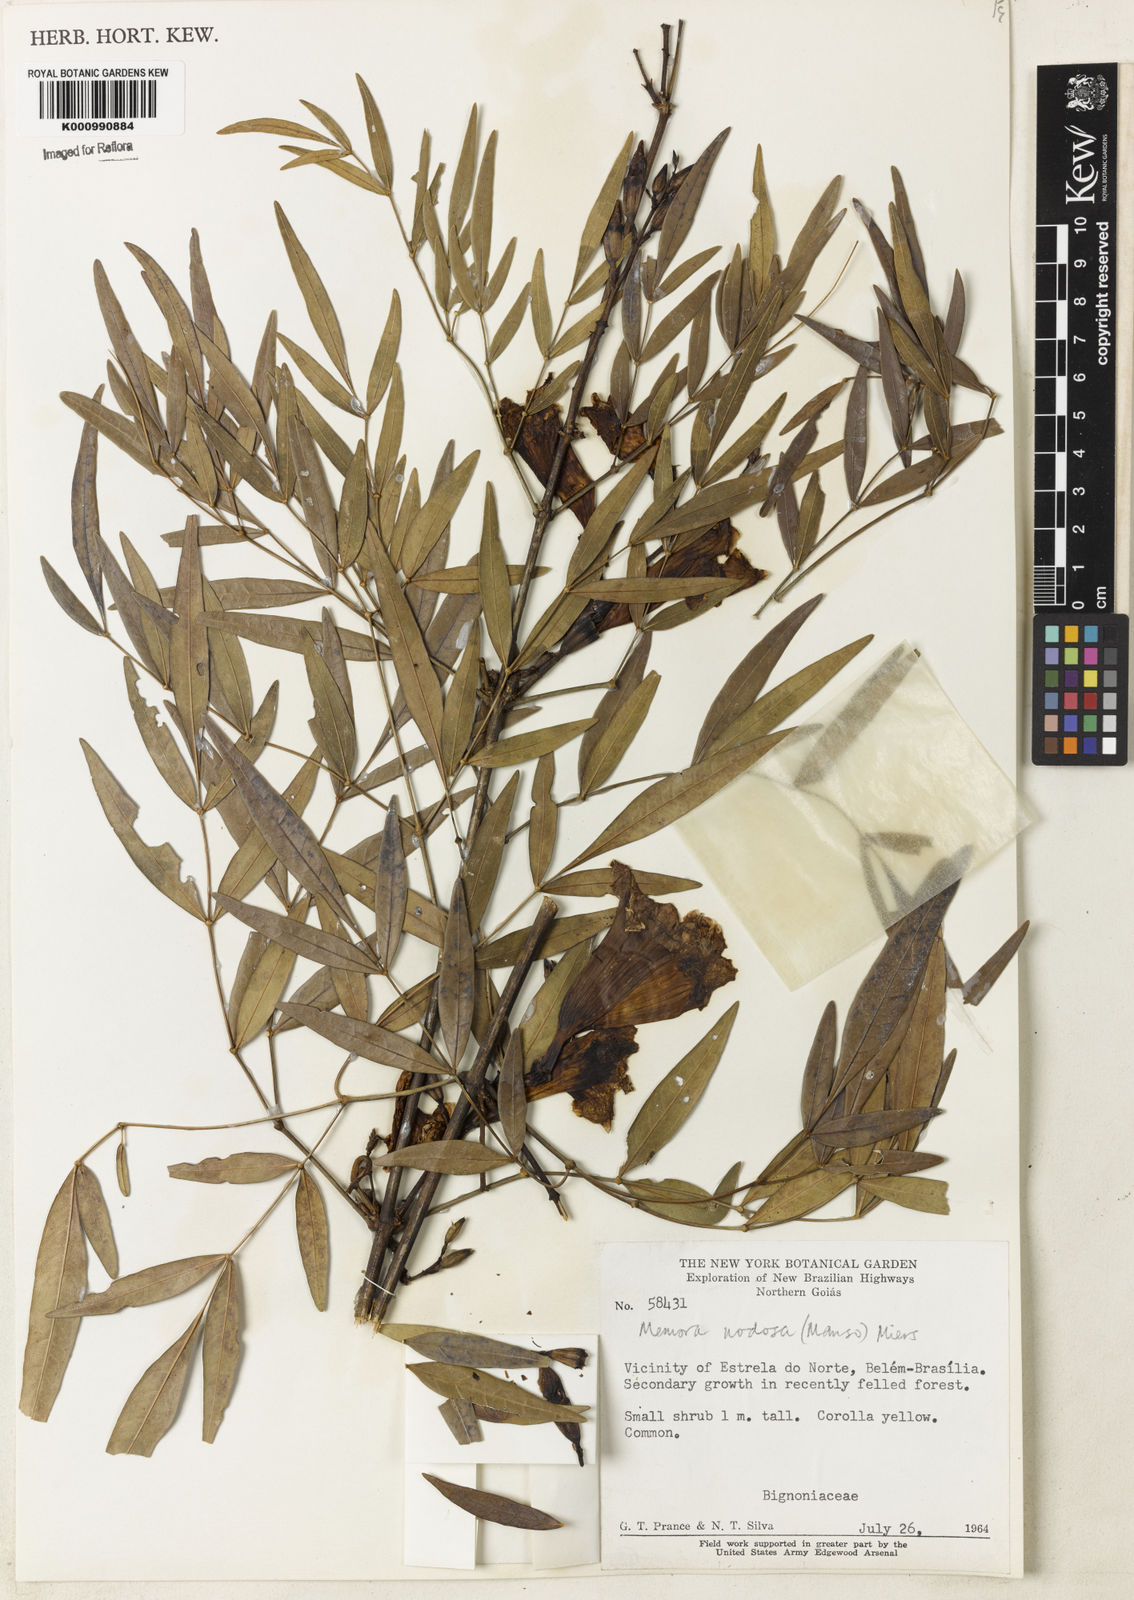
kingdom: Plantae
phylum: Tracheophyta
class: Magnoliopsida
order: Lamiales
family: Bignoniaceae
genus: Adenocalymma
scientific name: Adenocalymma nodosum
